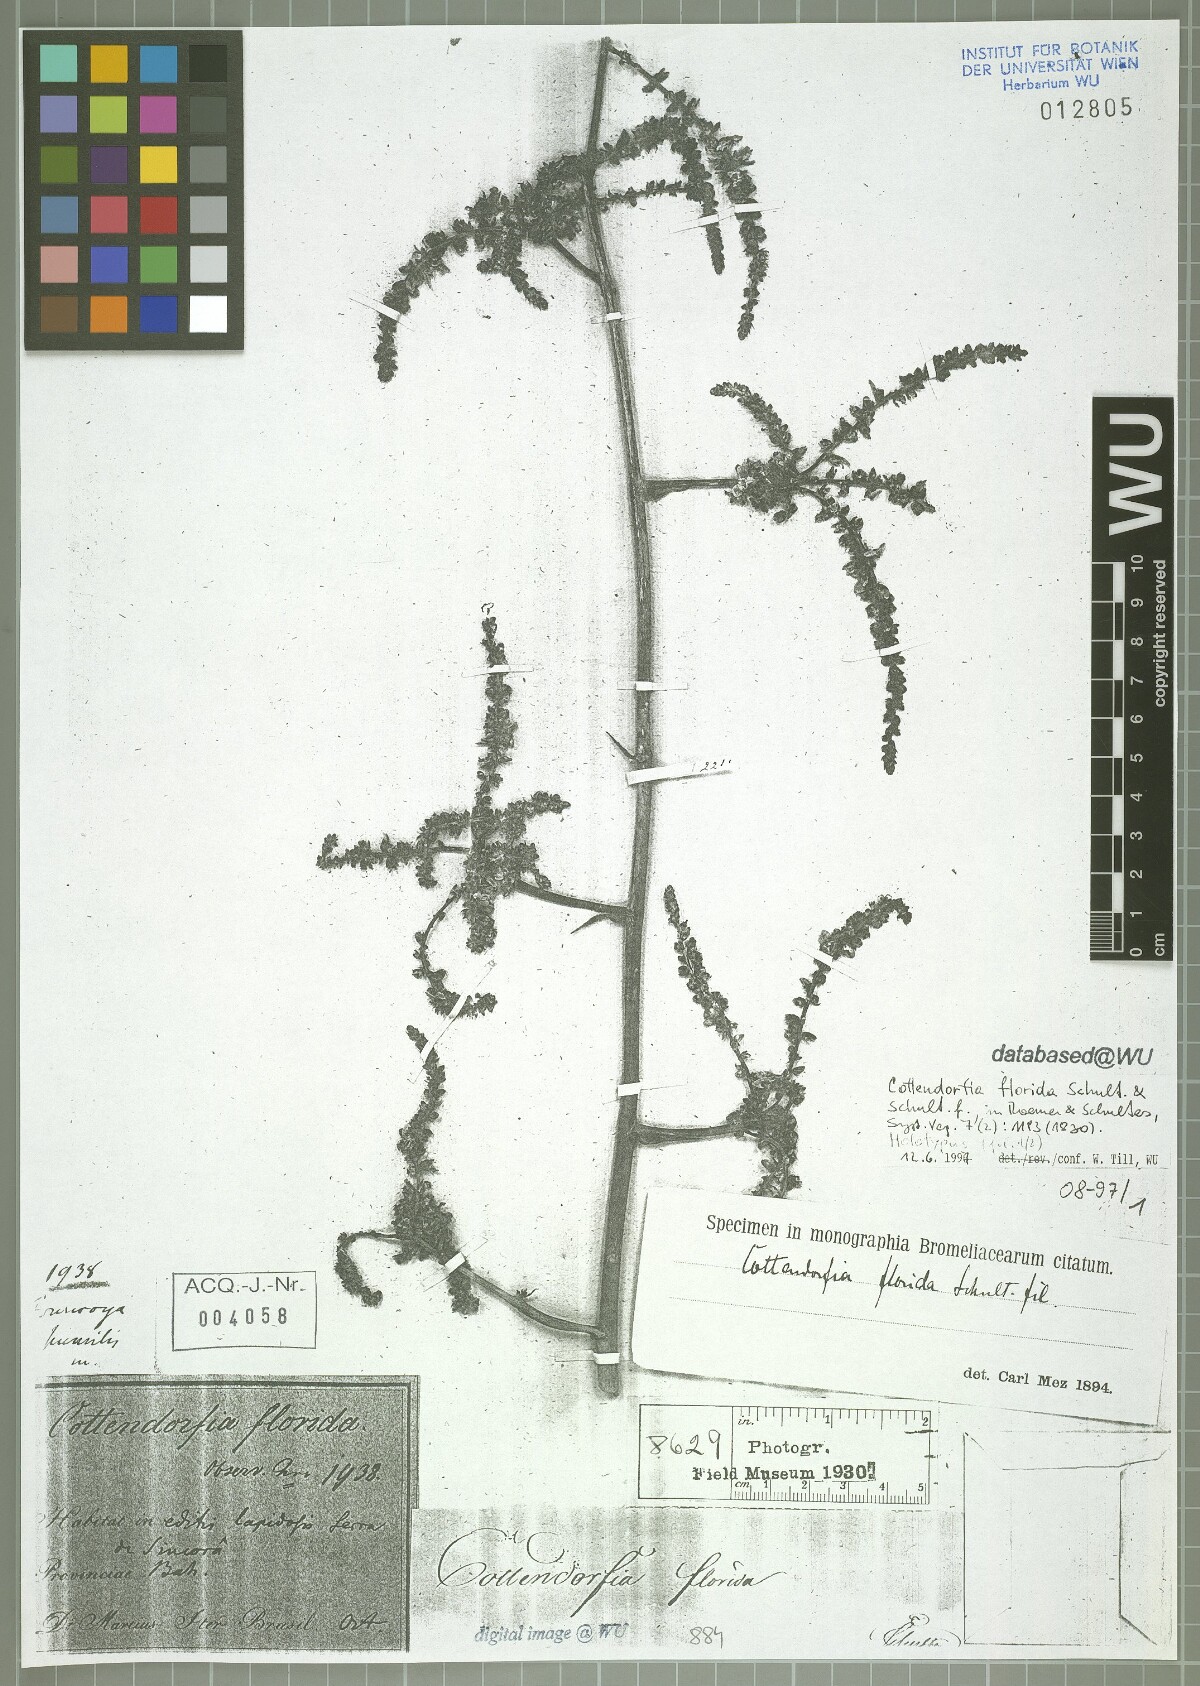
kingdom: Plantae
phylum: Tracheophyta
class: Liliopsida
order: Poales
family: Bromeliaceae
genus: Cottendorfia
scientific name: Cottendorfia florida
